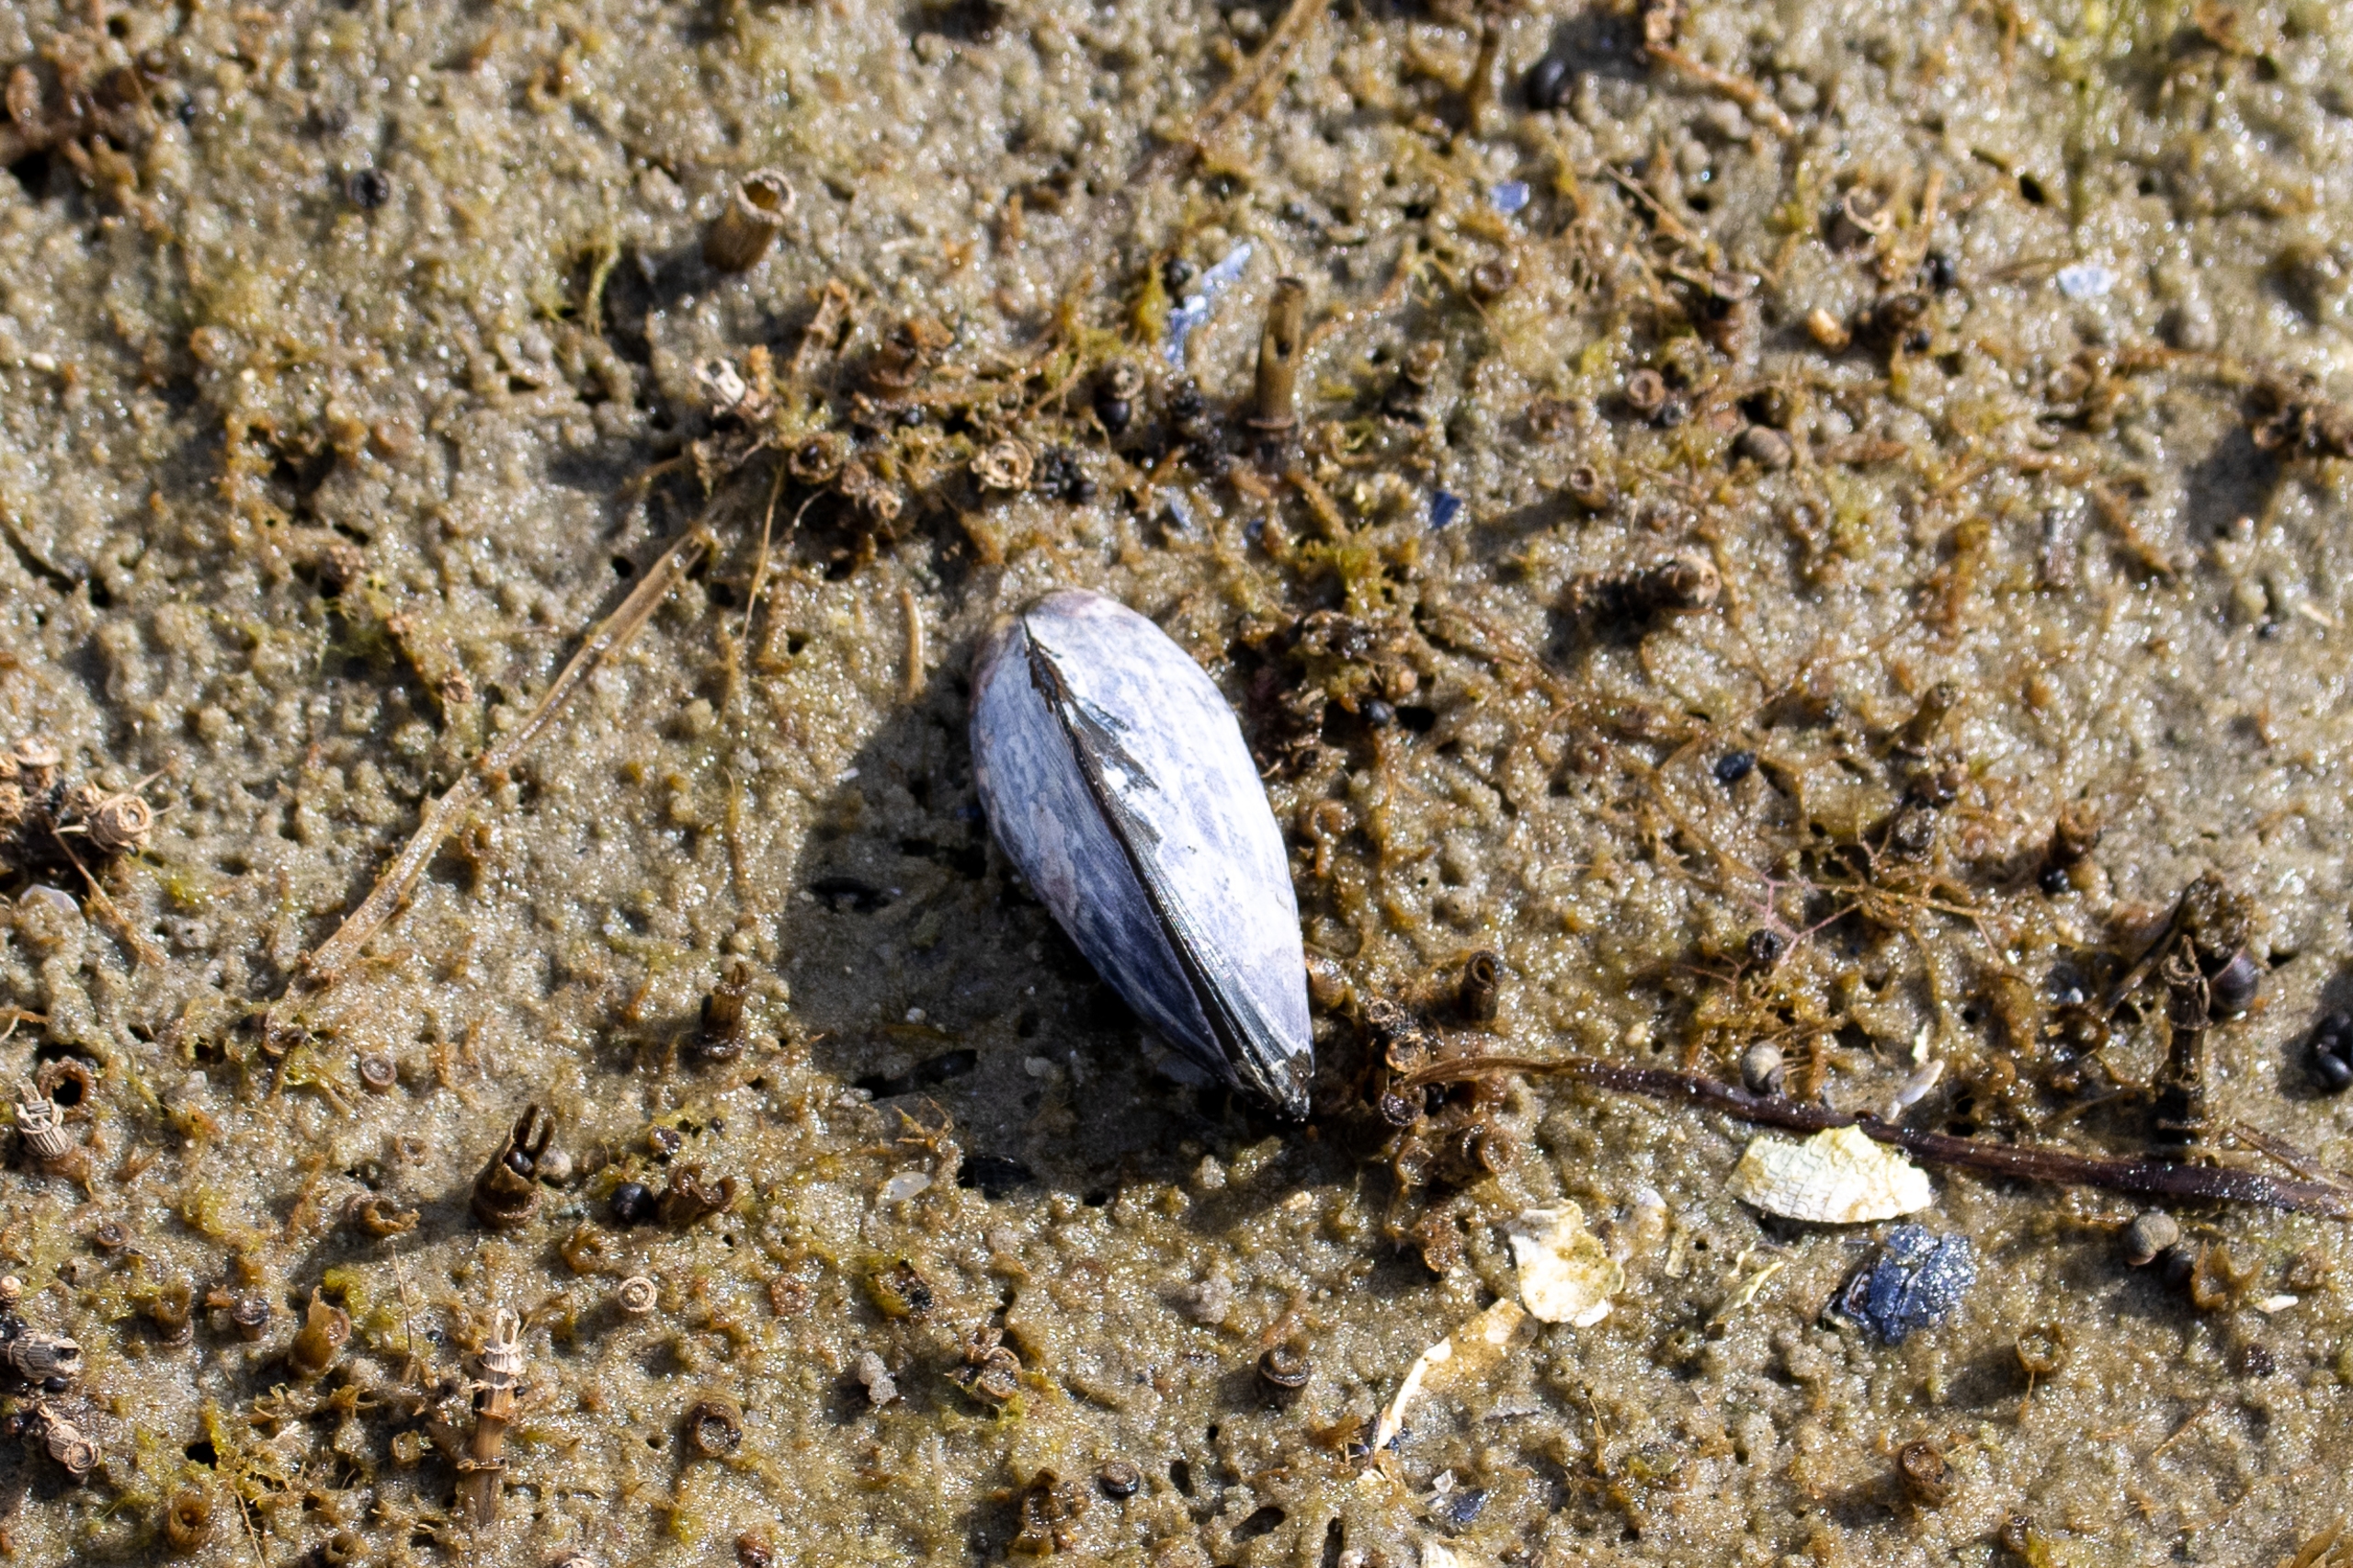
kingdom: Animalia
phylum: Mollusca
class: Bivalvia
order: Mytilida
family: Mytilidae
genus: Mytilus
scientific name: Mytilus edulis
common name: Blåmusling
